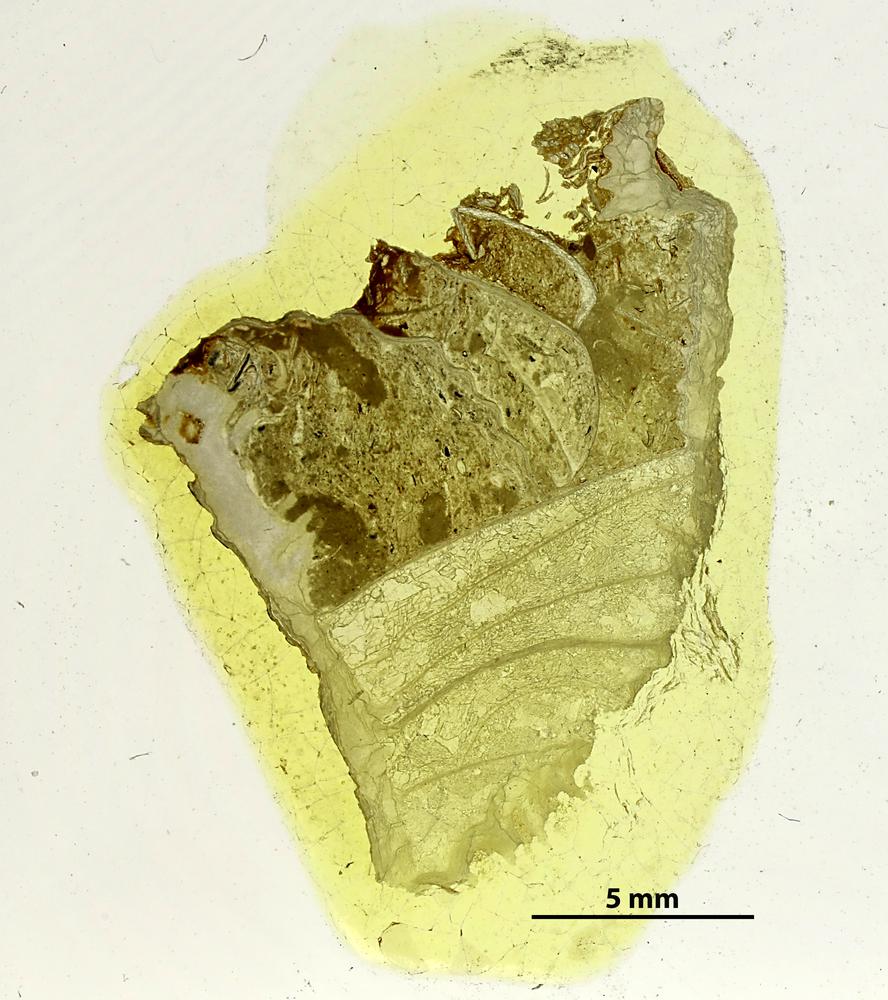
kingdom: Animalia
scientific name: Animalia
